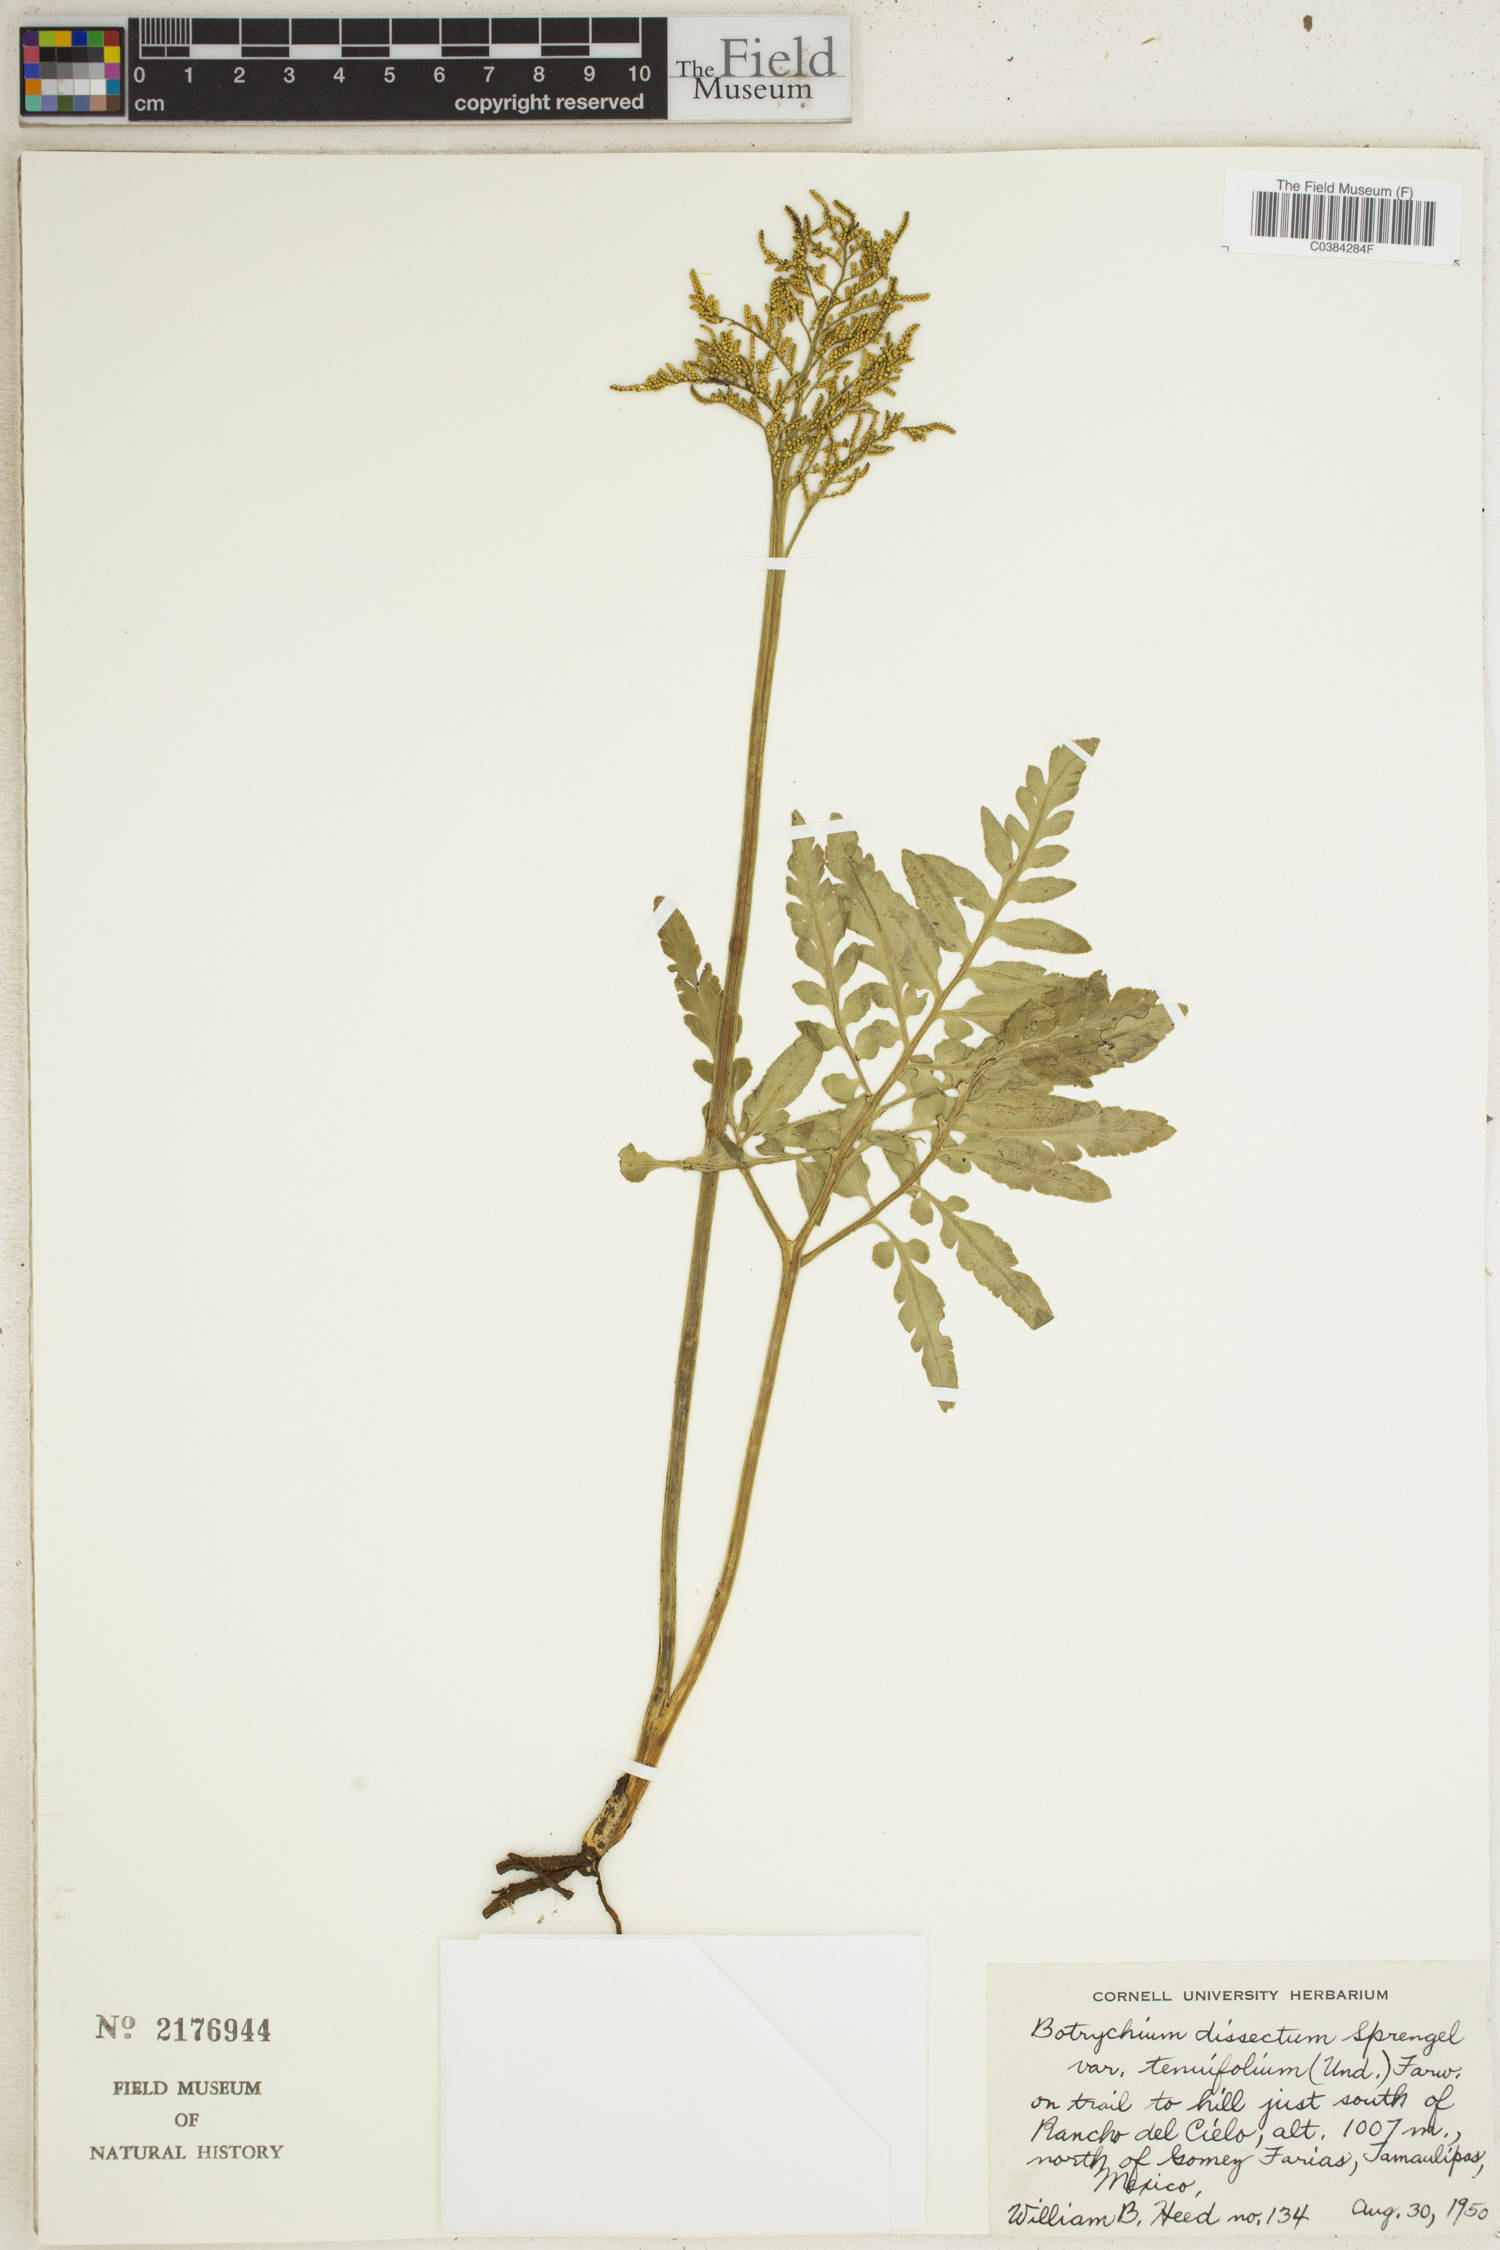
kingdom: Plantae
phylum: Tracheophyta
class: Polypodiopsida
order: Ophioglossales
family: Ophioglossaceae
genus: Sceptridium
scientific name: Sceptridium dissectum
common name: Cut-leaved grapefern
